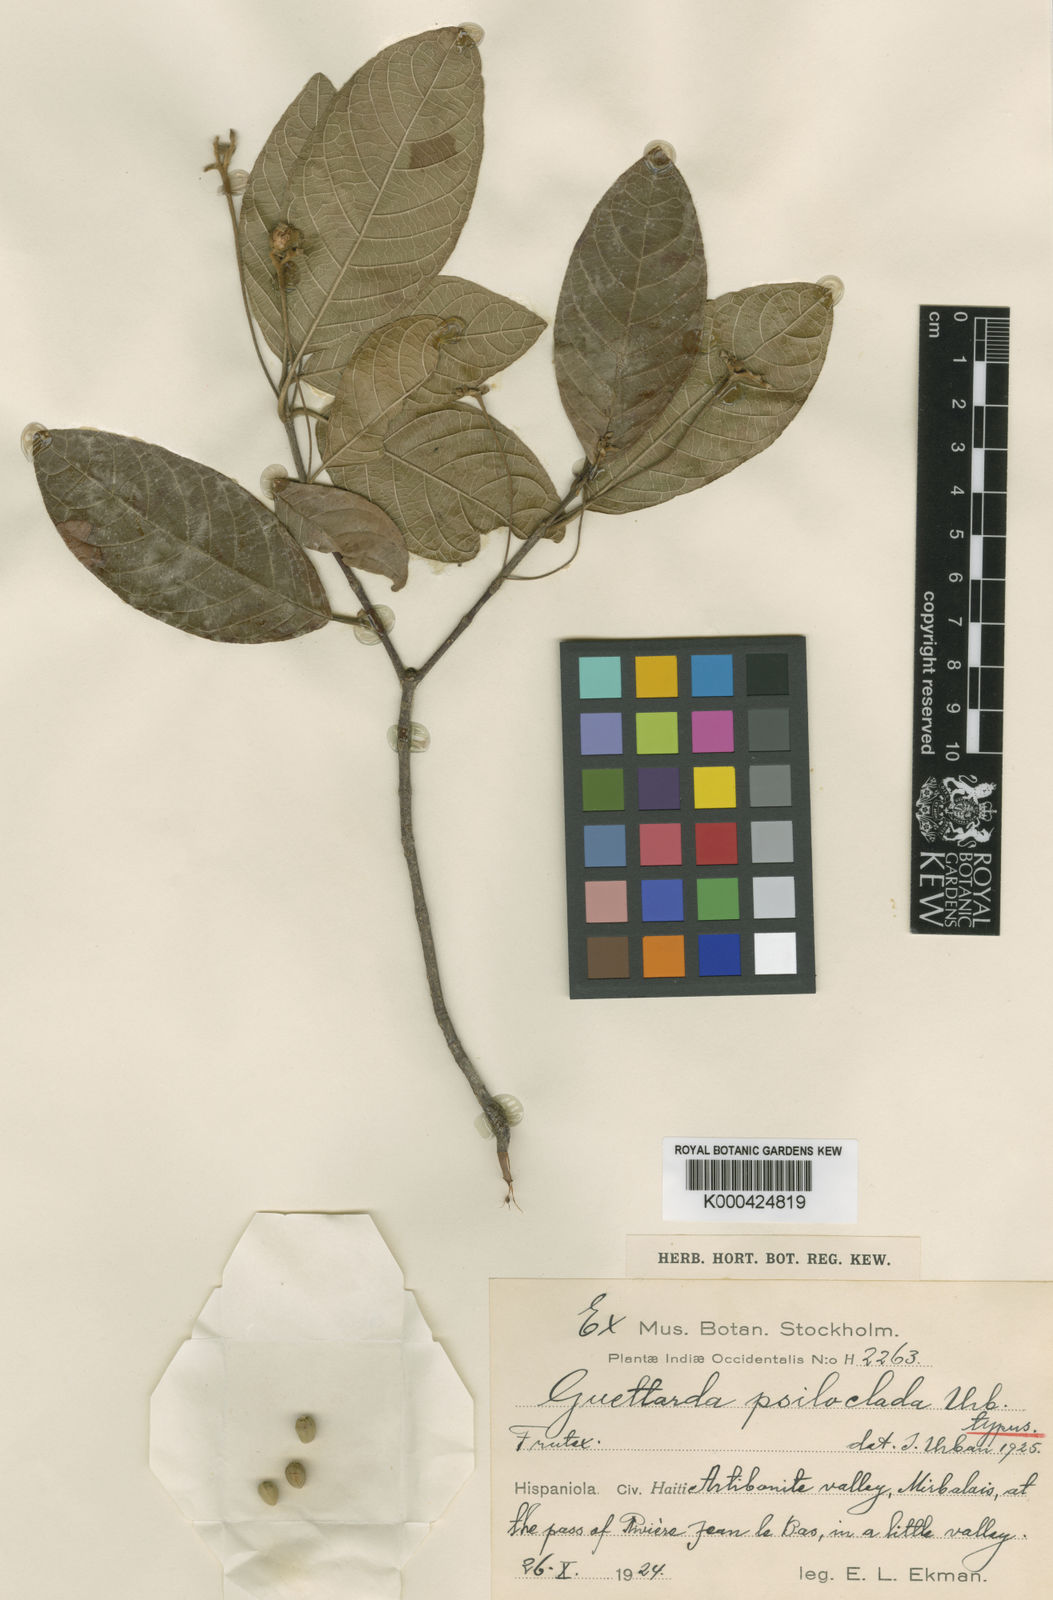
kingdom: Plantae
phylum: Tracheophyta
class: Magnoliopsida
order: Gentianales
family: Rubiaceae
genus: Guettarda
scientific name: Guettarda psiloclada
